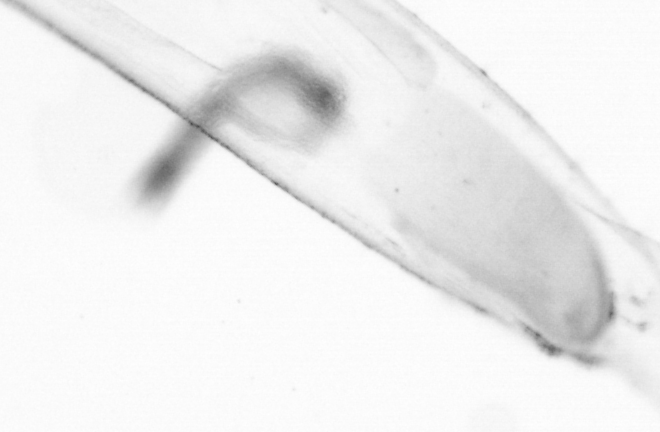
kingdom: Animalia
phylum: Chaetognatha
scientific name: Chaetognatha
